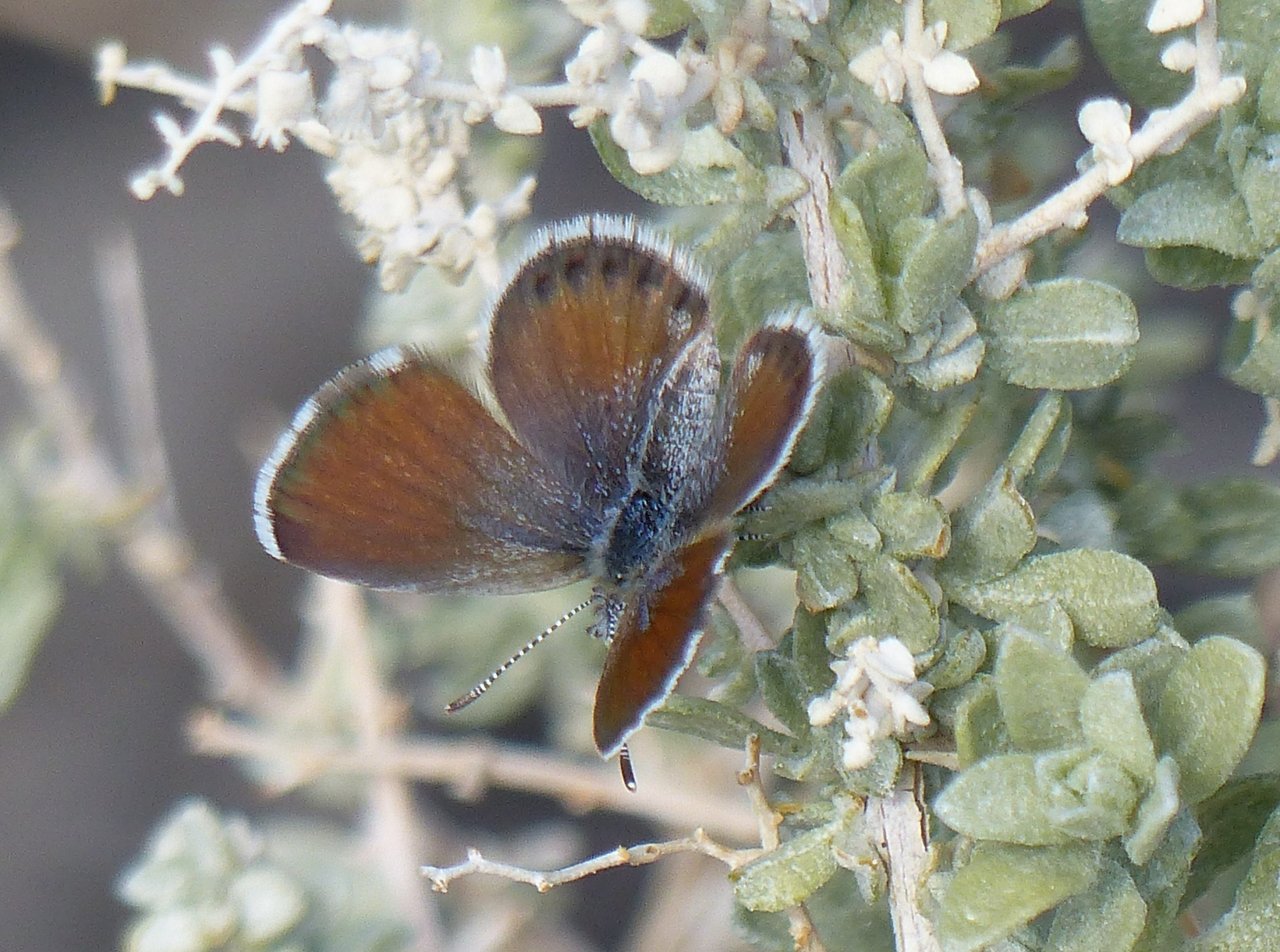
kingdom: Animalia
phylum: Arthropoda
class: Insecta
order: Lepidoptera
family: Lycaenidae
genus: Brephidium
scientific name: Brephidium exilis
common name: Western Pygmy-Blue
